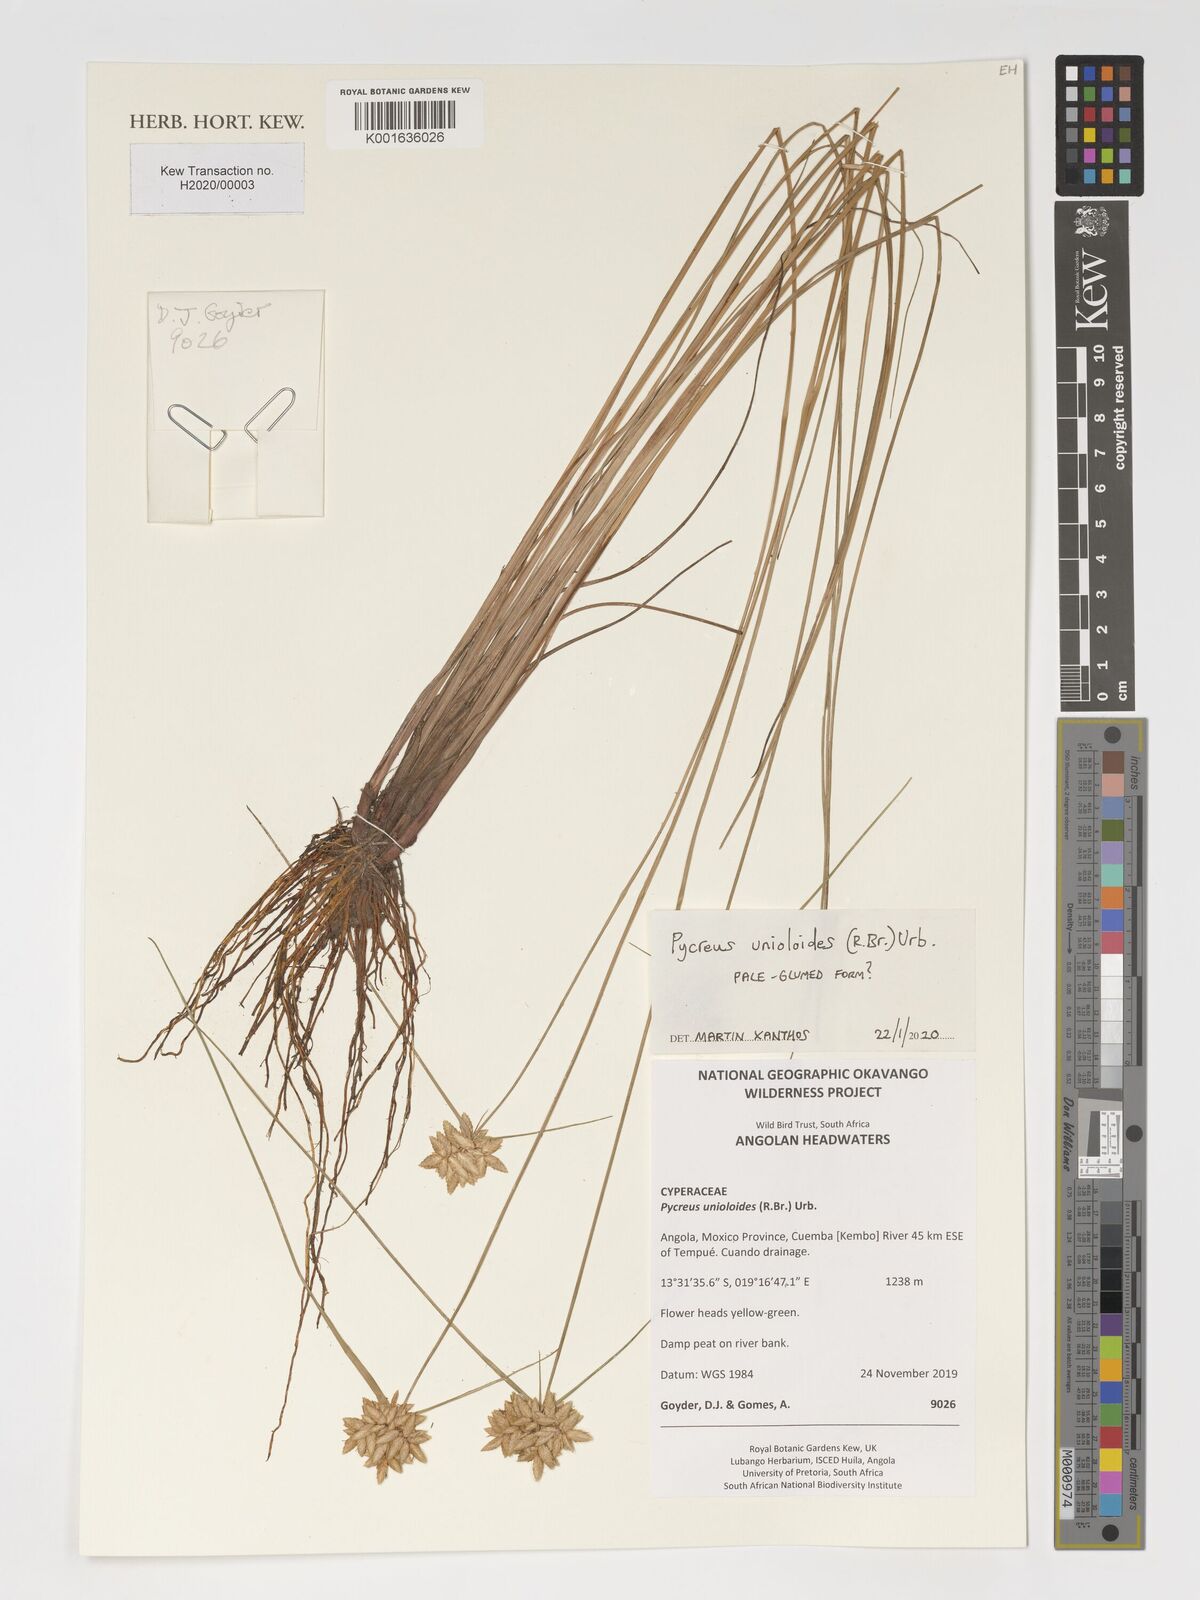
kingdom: Plantae
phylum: Tracheophyta
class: Liliopsida
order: Poales
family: Cyperaceae
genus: Cyperus
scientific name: Cyperus unioloides
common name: Uniola flatsedge
